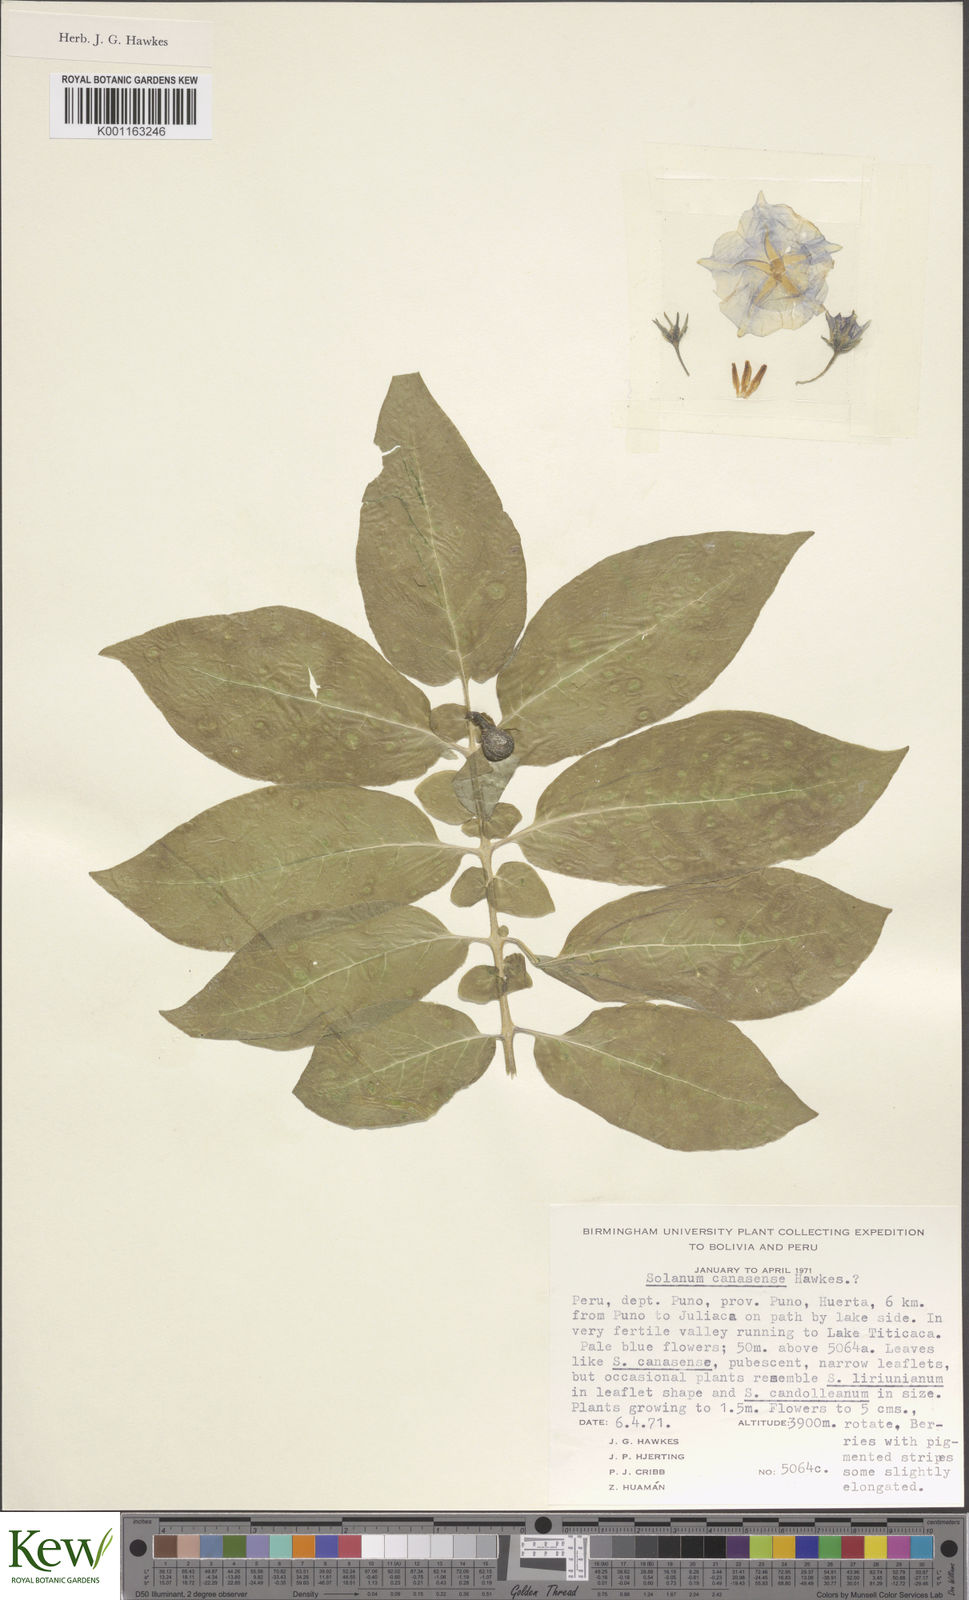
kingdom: Plantae
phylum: Tracheophyta
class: Magnoliopsida
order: Solanales
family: Solanaceae
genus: Solanum
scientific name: Solanum candolleanum
